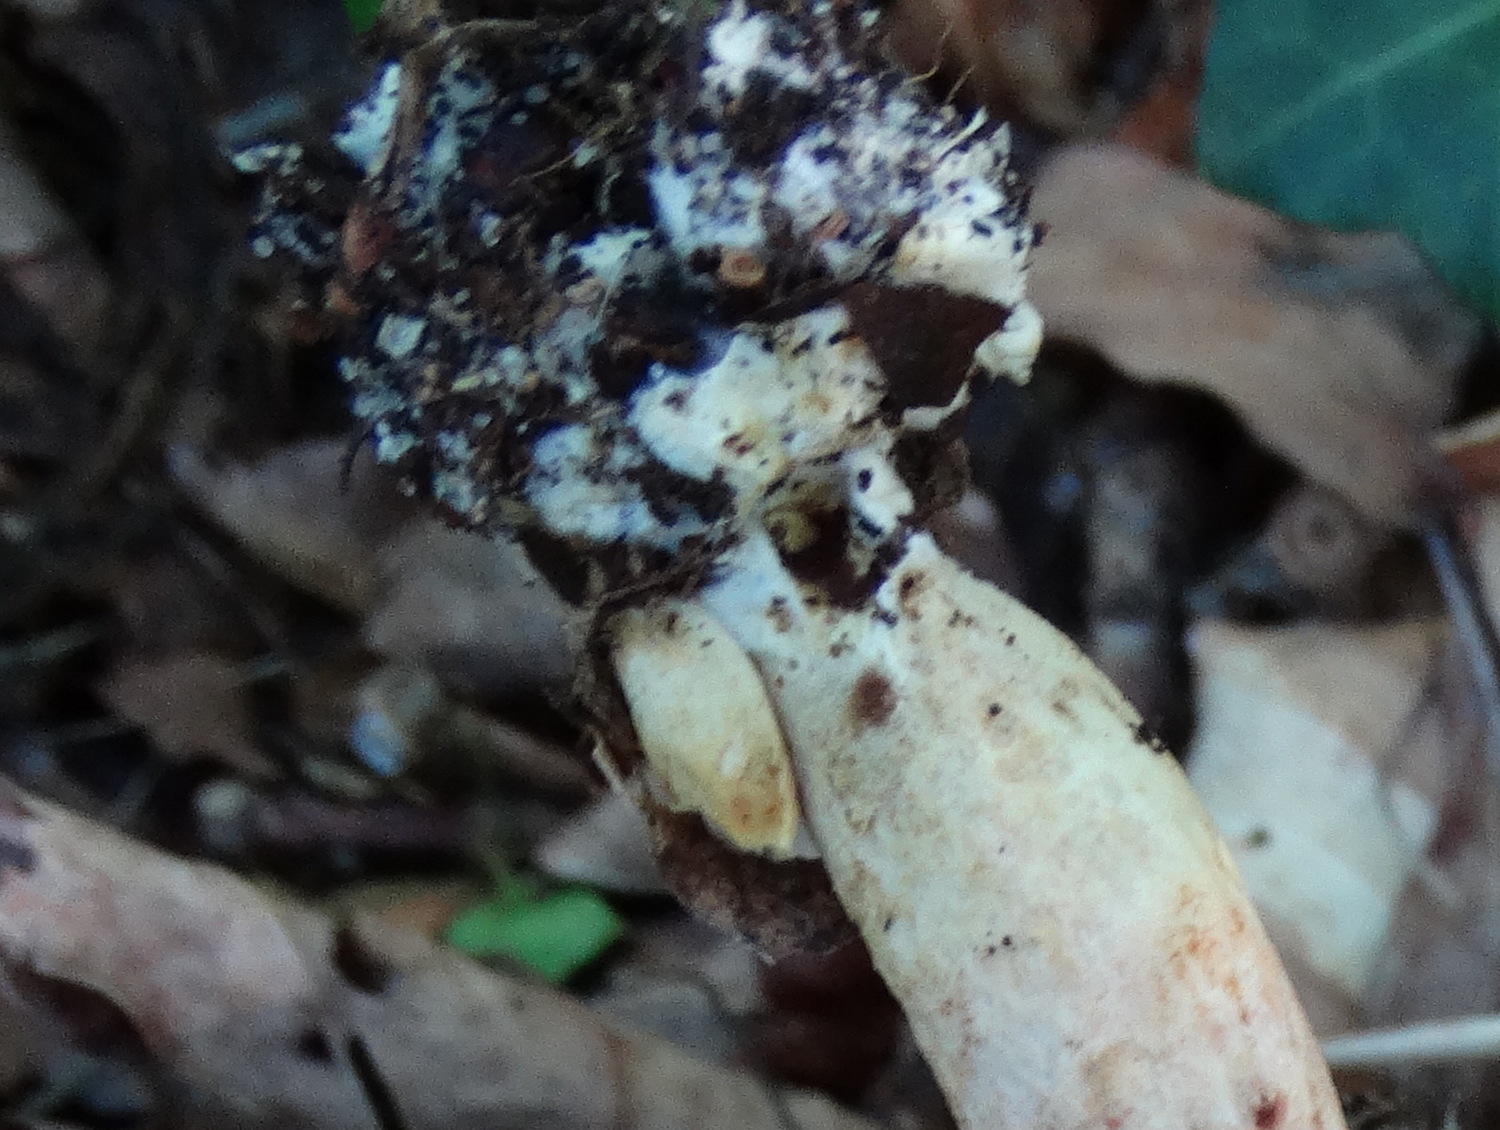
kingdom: Fungi
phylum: Basidiomycota
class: Agaricomycetes
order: Boletales
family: Boletaceae
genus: Xerocomus
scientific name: Xerocomus subtomentosus
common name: filtet rørhat
